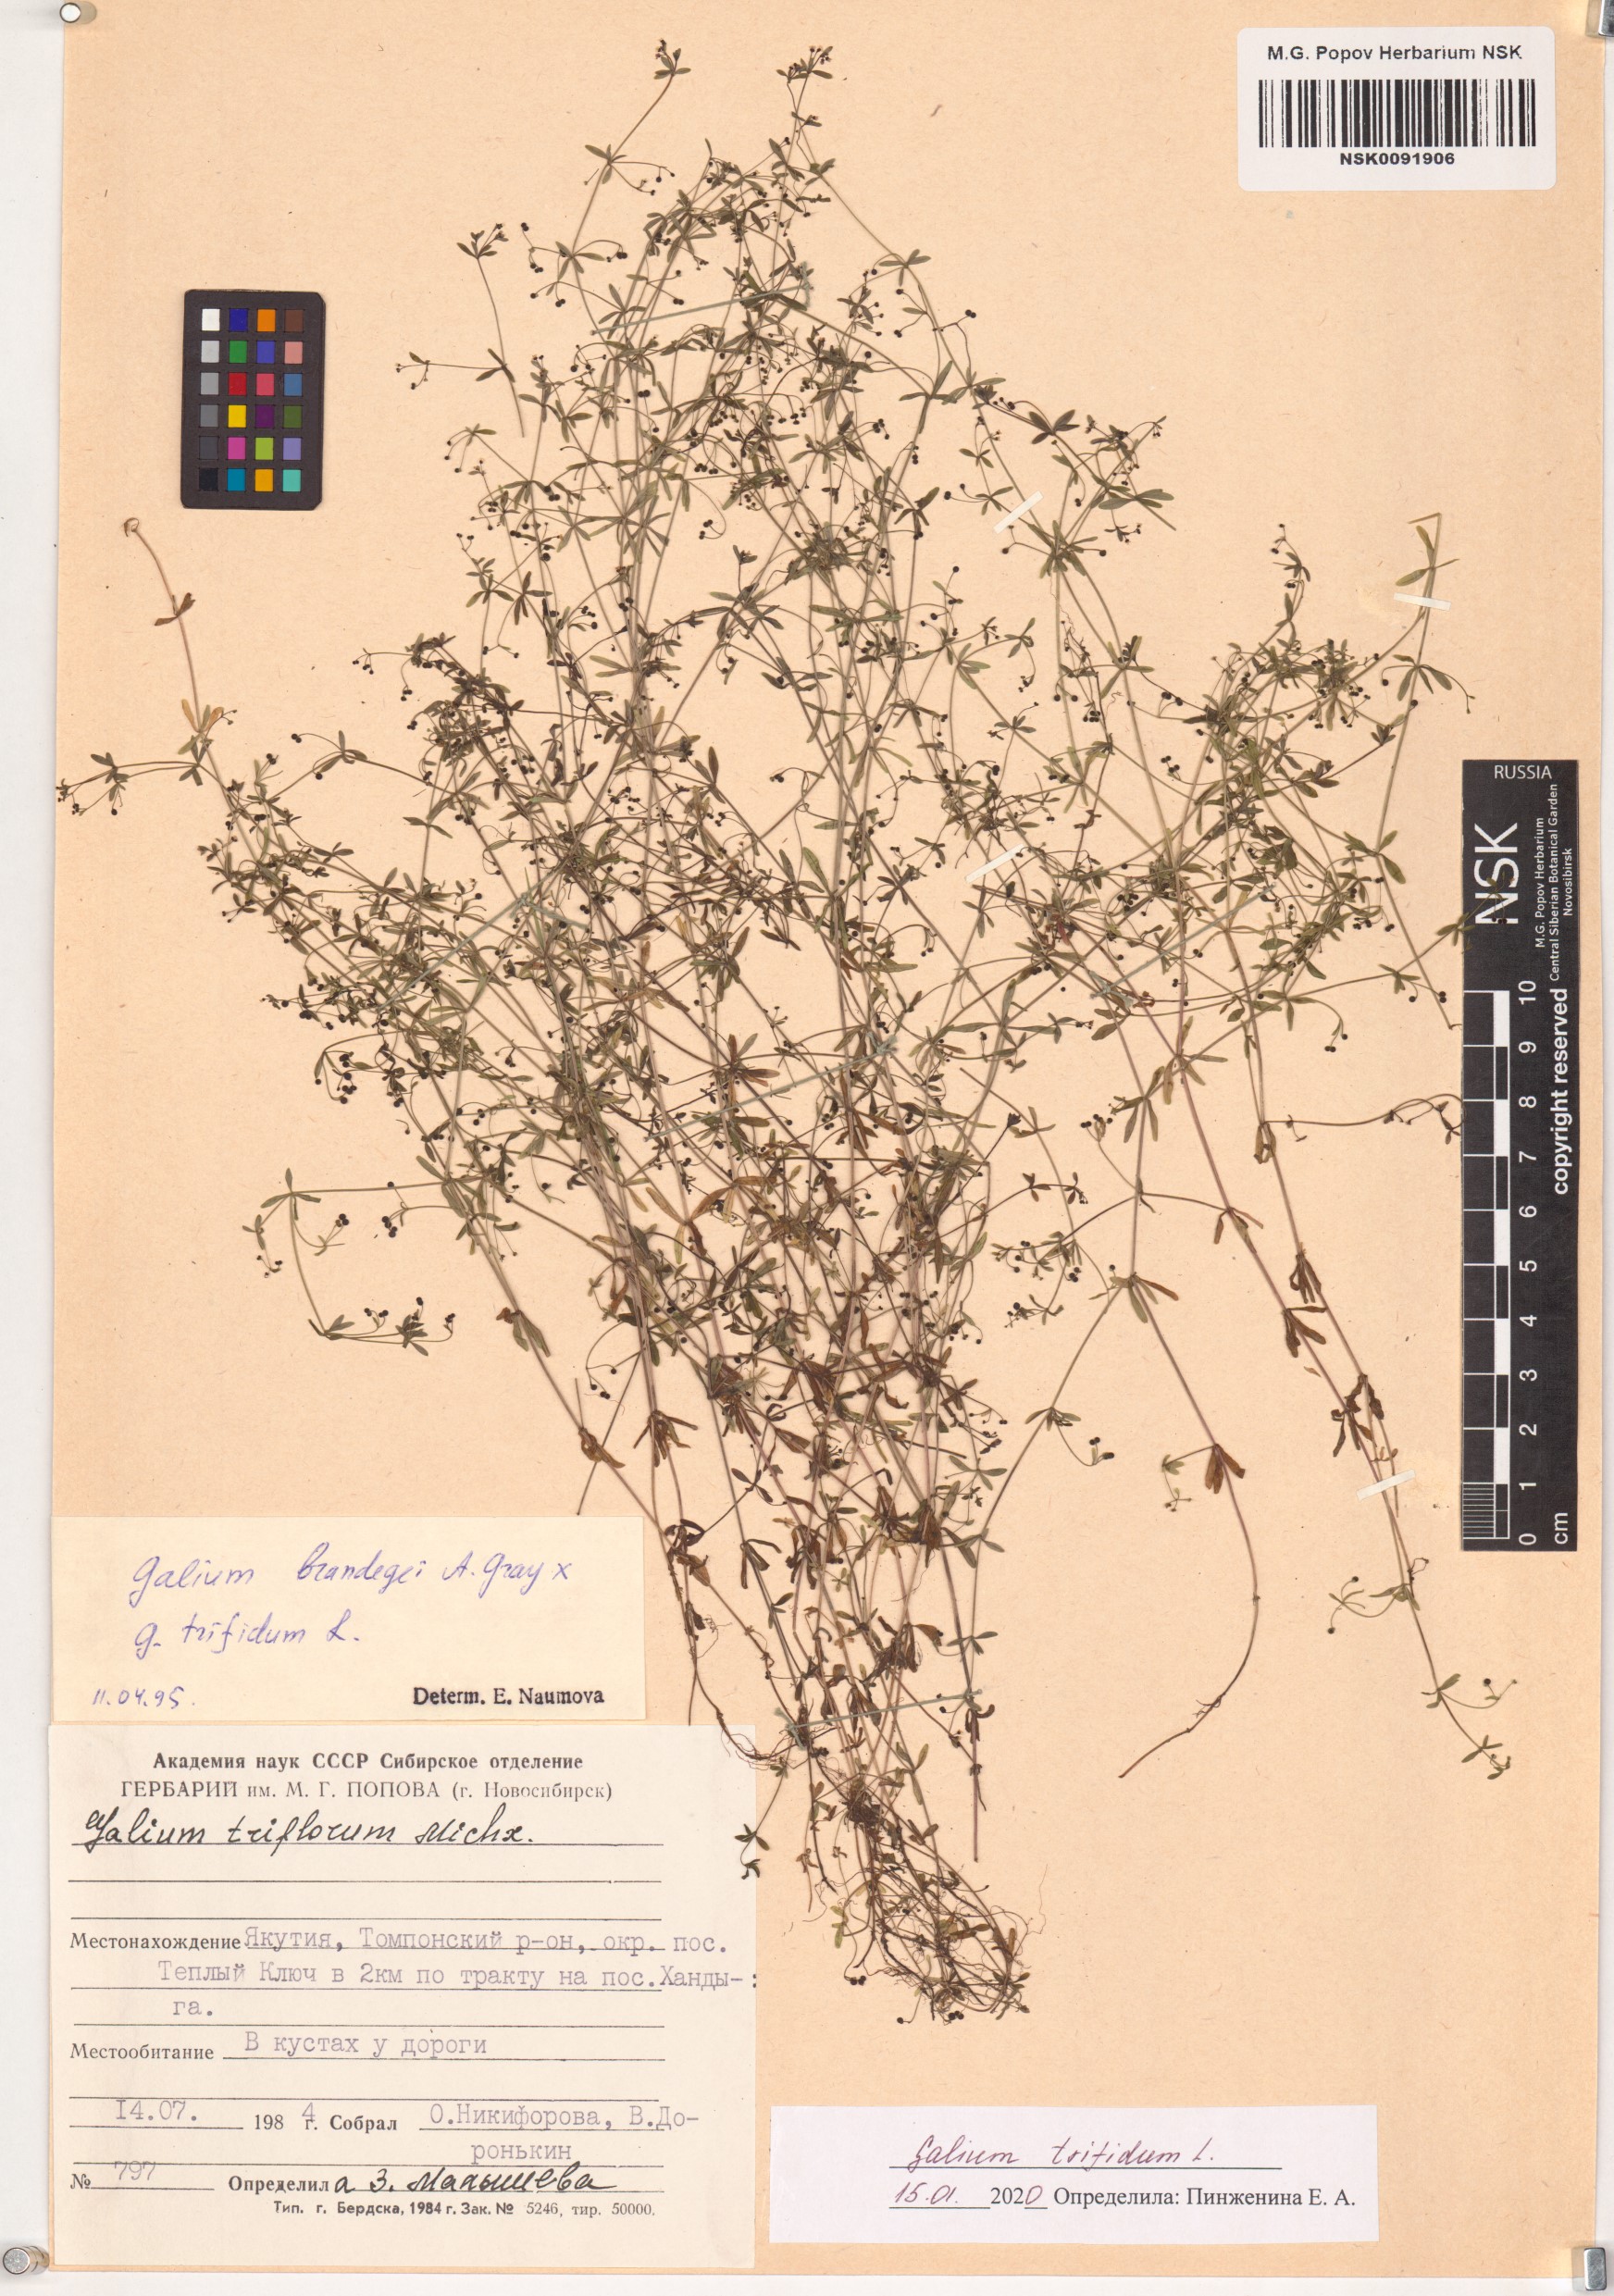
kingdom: Plantae
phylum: Tracheophyta
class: Magnoliopsida
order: Gentianales
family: Rubiaceae
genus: Galium
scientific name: Galium trifidum
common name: Small bedstraw
